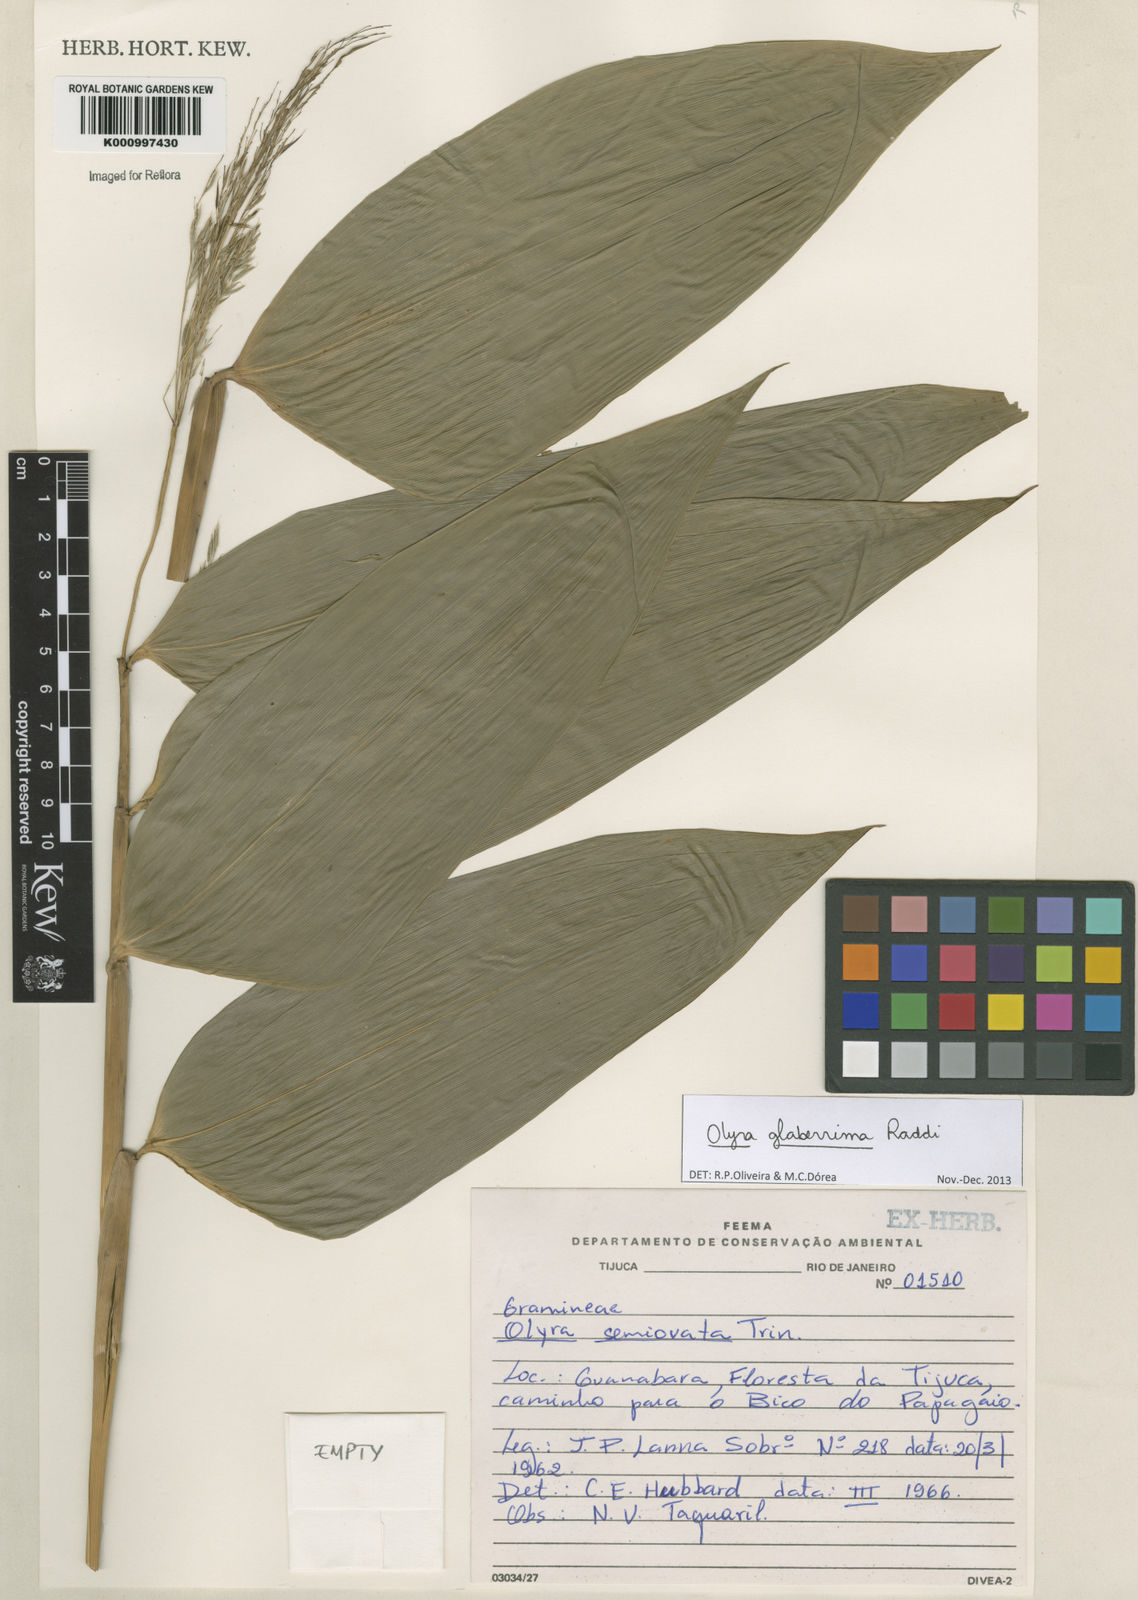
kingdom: Plantae
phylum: Tracheophyta
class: Liliopsida
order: Poales
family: Poaceae
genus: Olyra
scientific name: Olyra glaberrima
